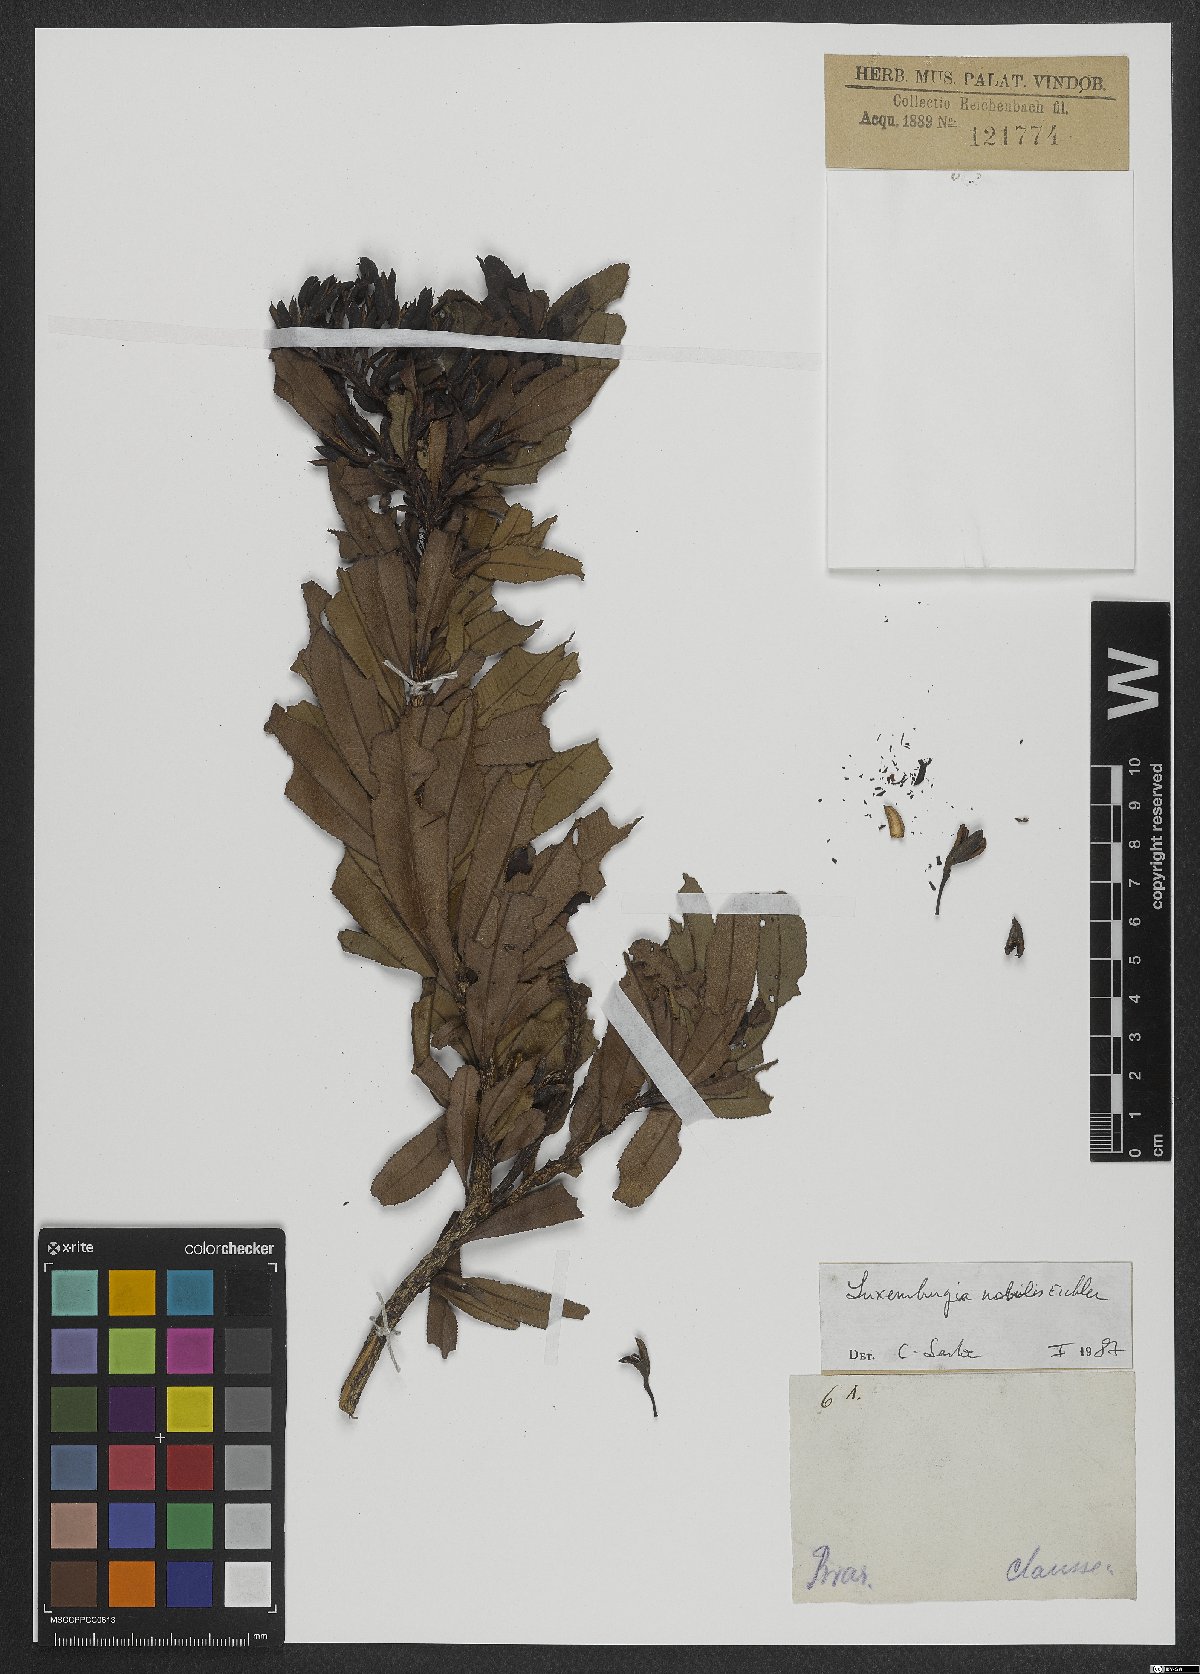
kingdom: Plantae
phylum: Tracheophyta
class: Magnoliopsida
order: Malpighiales
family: Ochnaceae
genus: Luxemburgia
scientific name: Luxemburgia nobilis
